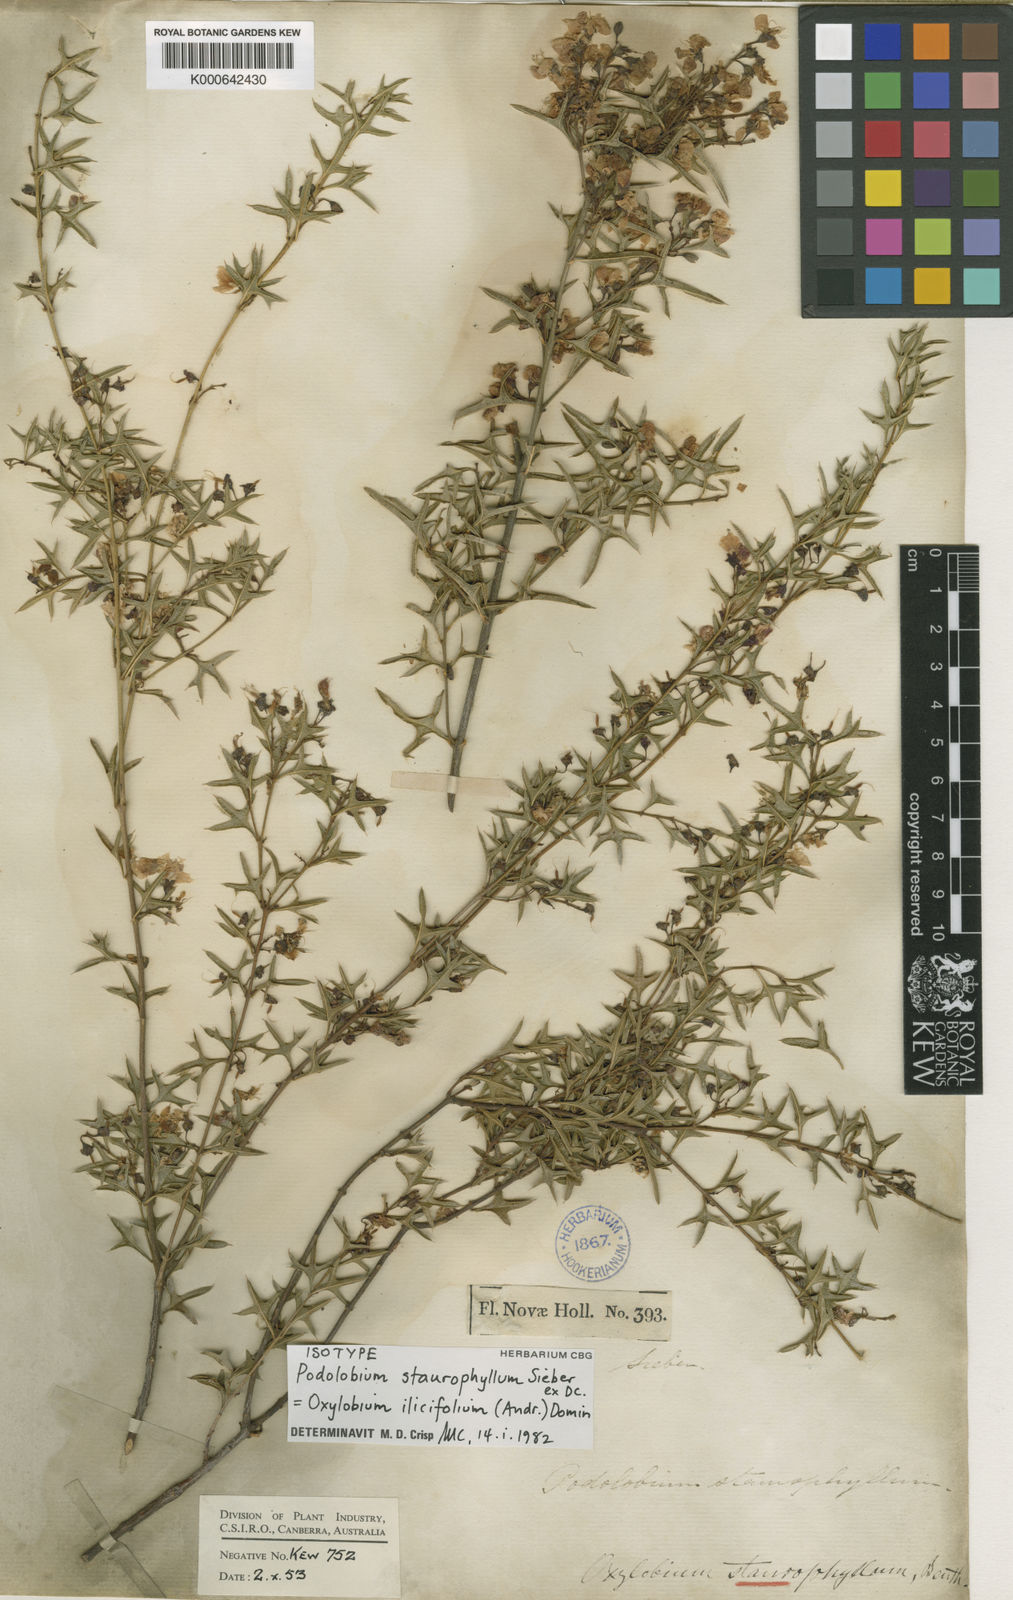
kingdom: Plantae
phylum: Tracheophyta
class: Magnoliopsida
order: Fabales
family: Fabaceae
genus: Oxylobium
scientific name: Oxylobium
